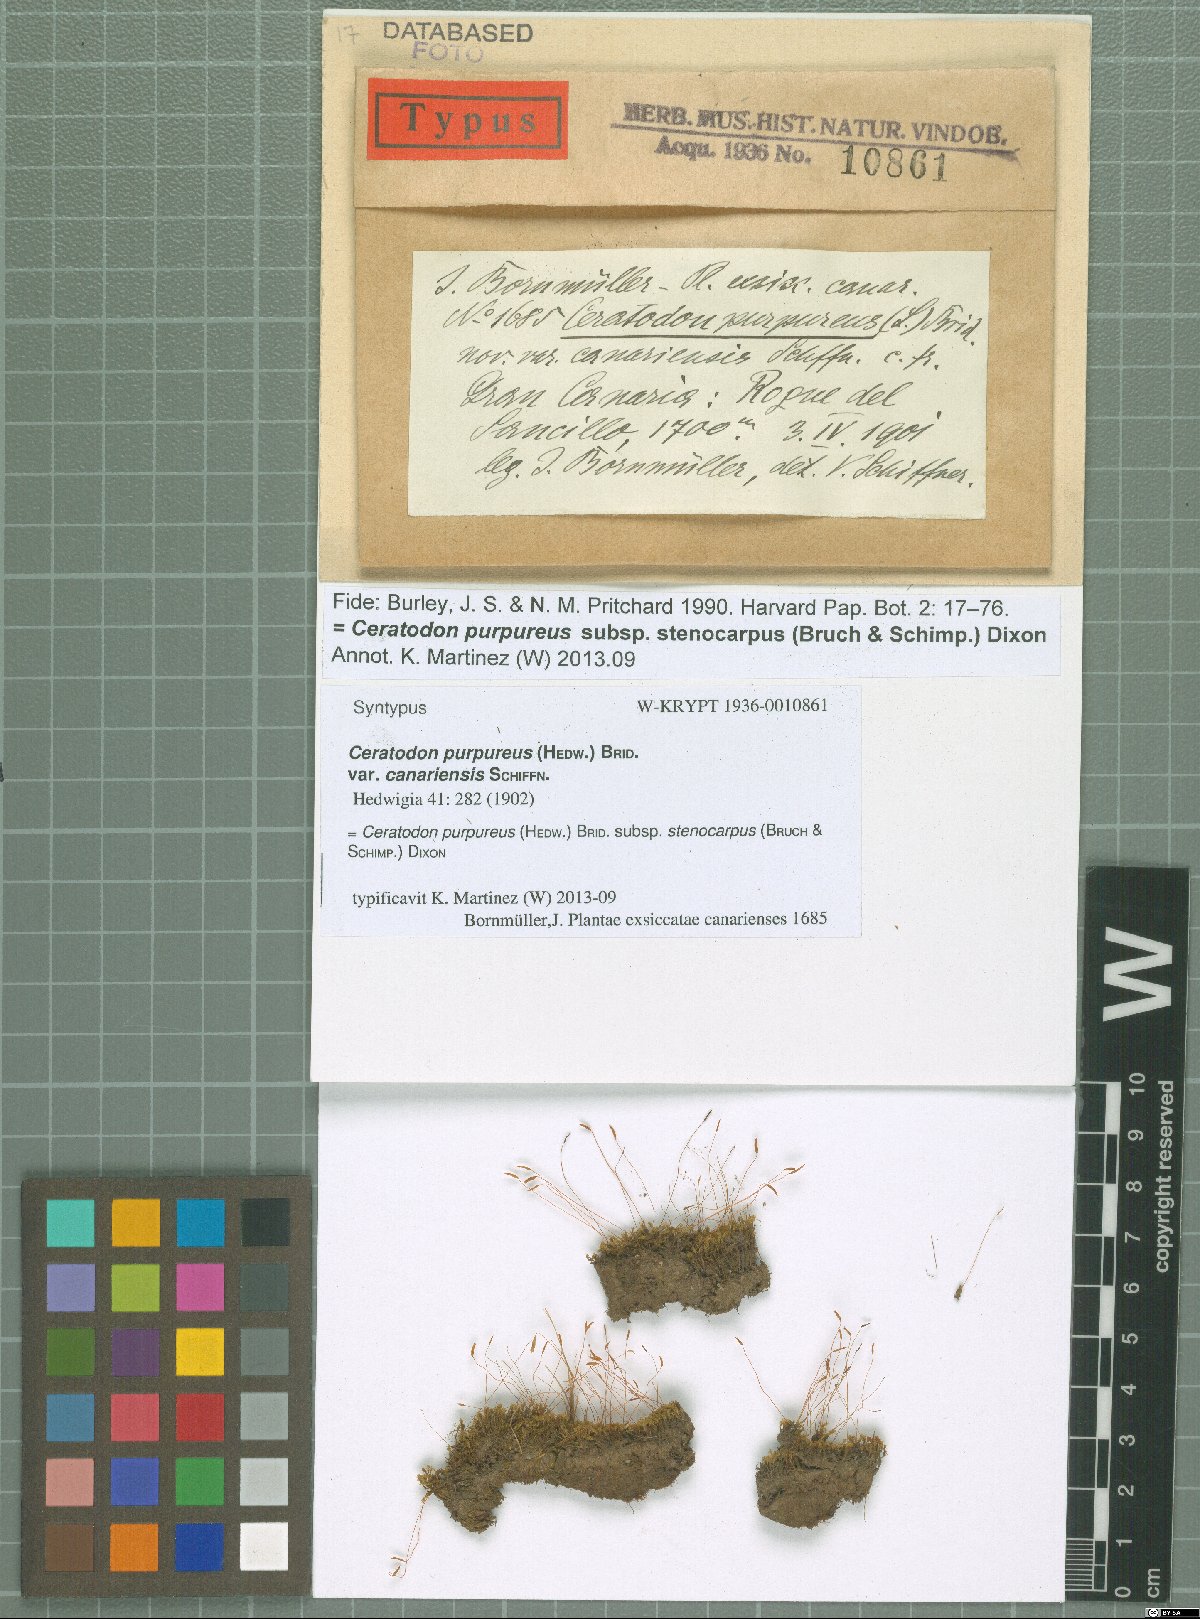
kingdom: Plantae
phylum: Bryophyta
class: Bryopsida
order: Dicranales
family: Ditrichaceae
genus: Ceratodon
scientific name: Ceratodon purpureus
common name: Redshank
